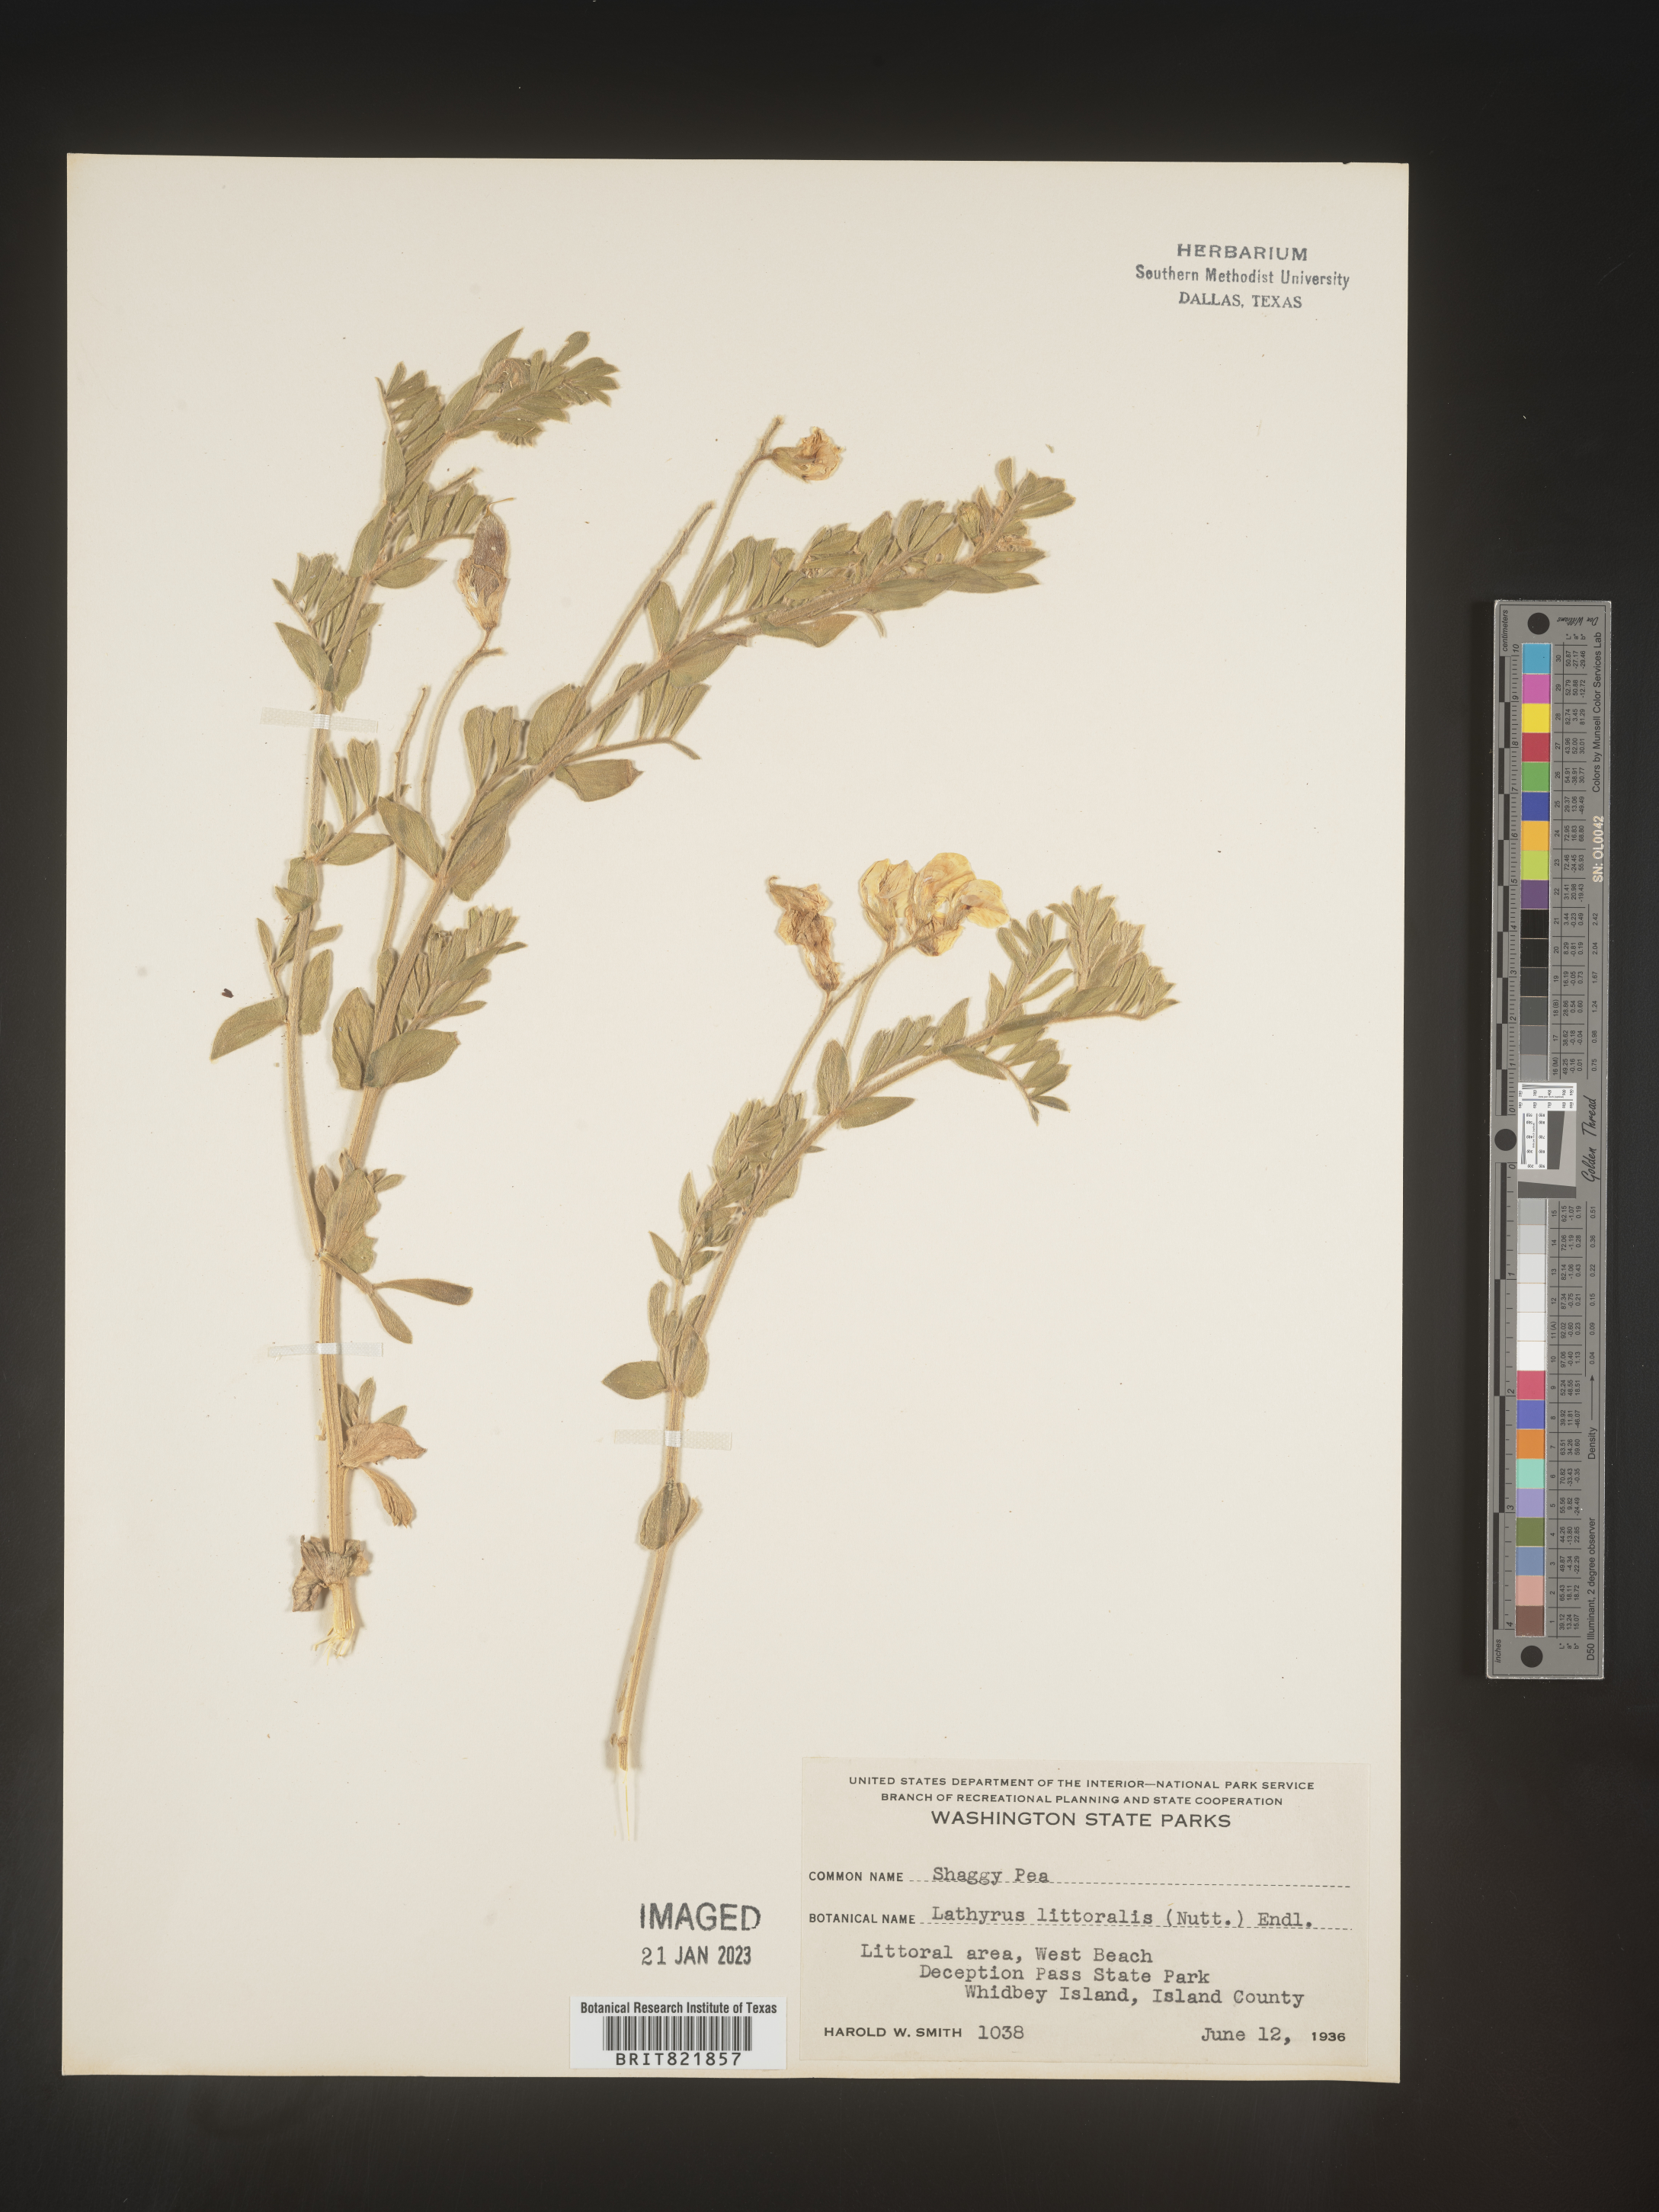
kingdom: Plantae
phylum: Tracheophyta
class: Magnoliopsida
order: Fabales
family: Fabaceae
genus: Lathyrus
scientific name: Lathyrus
